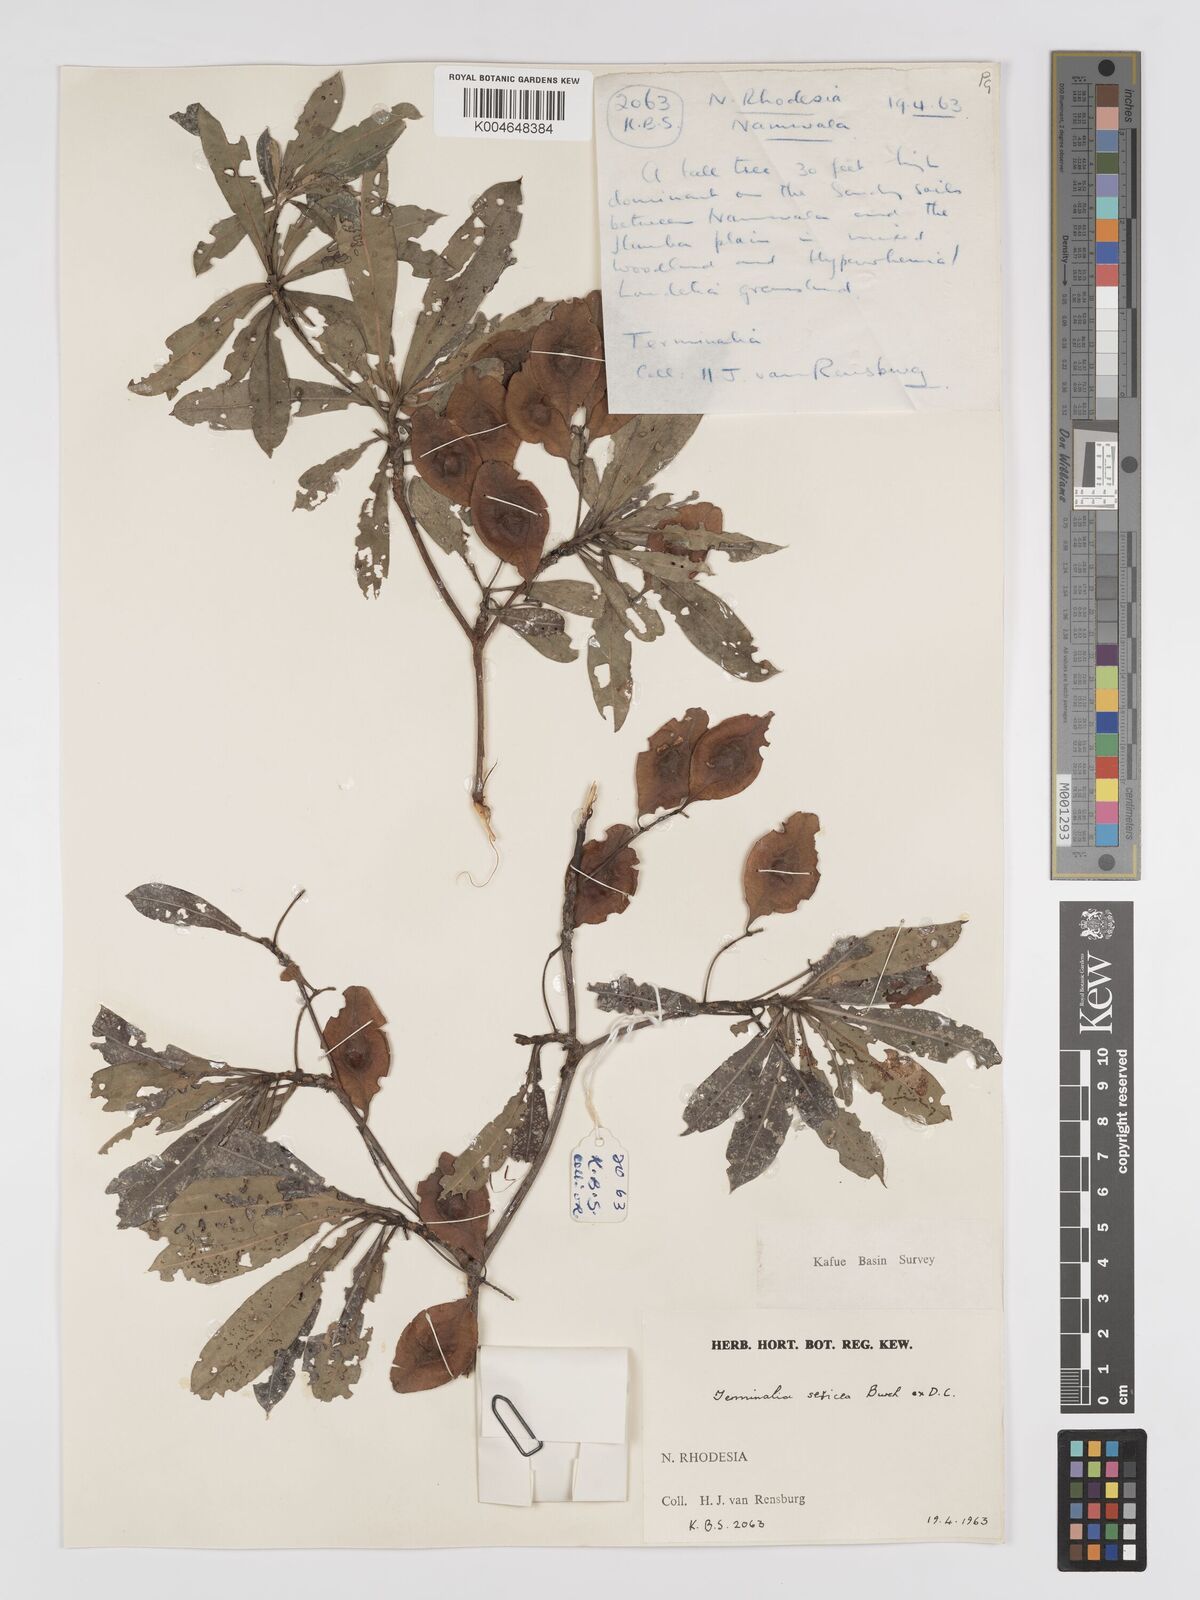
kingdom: Plantae
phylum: Tracheophyta
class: Magnoliopsida
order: Myrtales
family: Combretaceae
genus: Terminalia
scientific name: Terminalia
